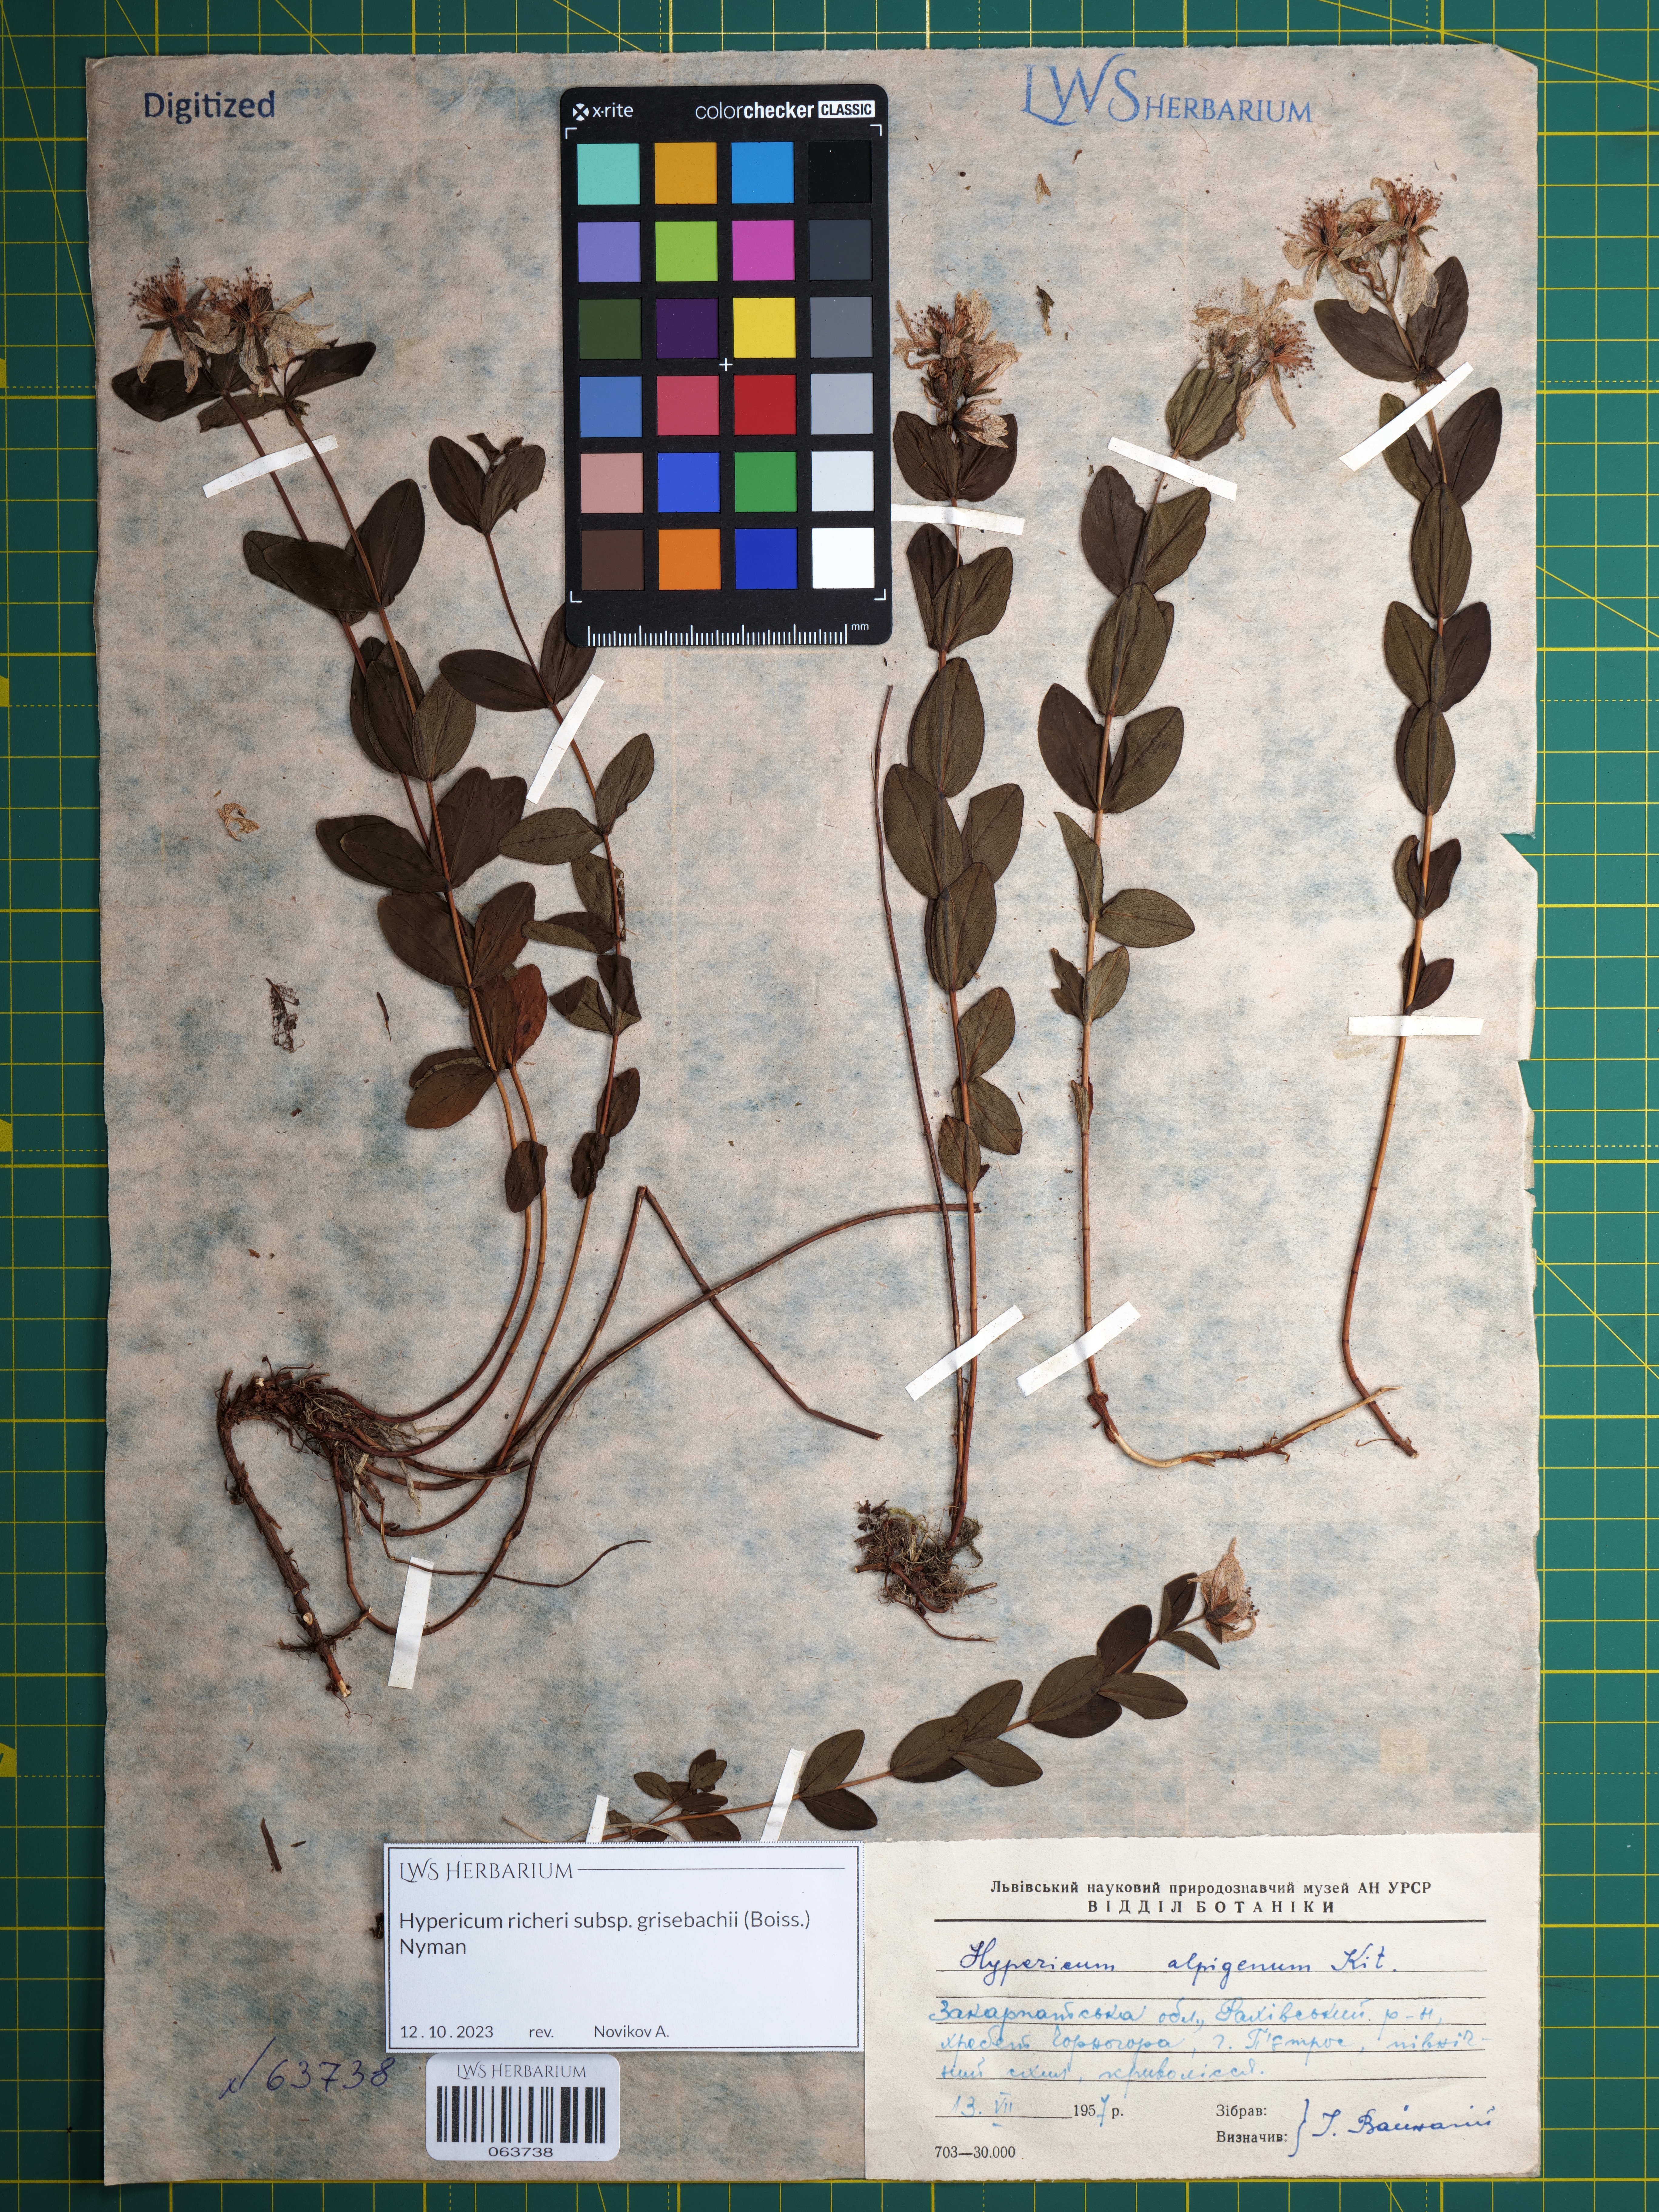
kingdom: Plantae
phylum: Tracheophyta
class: Magnoliopsida
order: Malpighiales
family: Hypericaceae
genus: Hypericum
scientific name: Hypericum richeri
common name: Alpine st john's-wort
